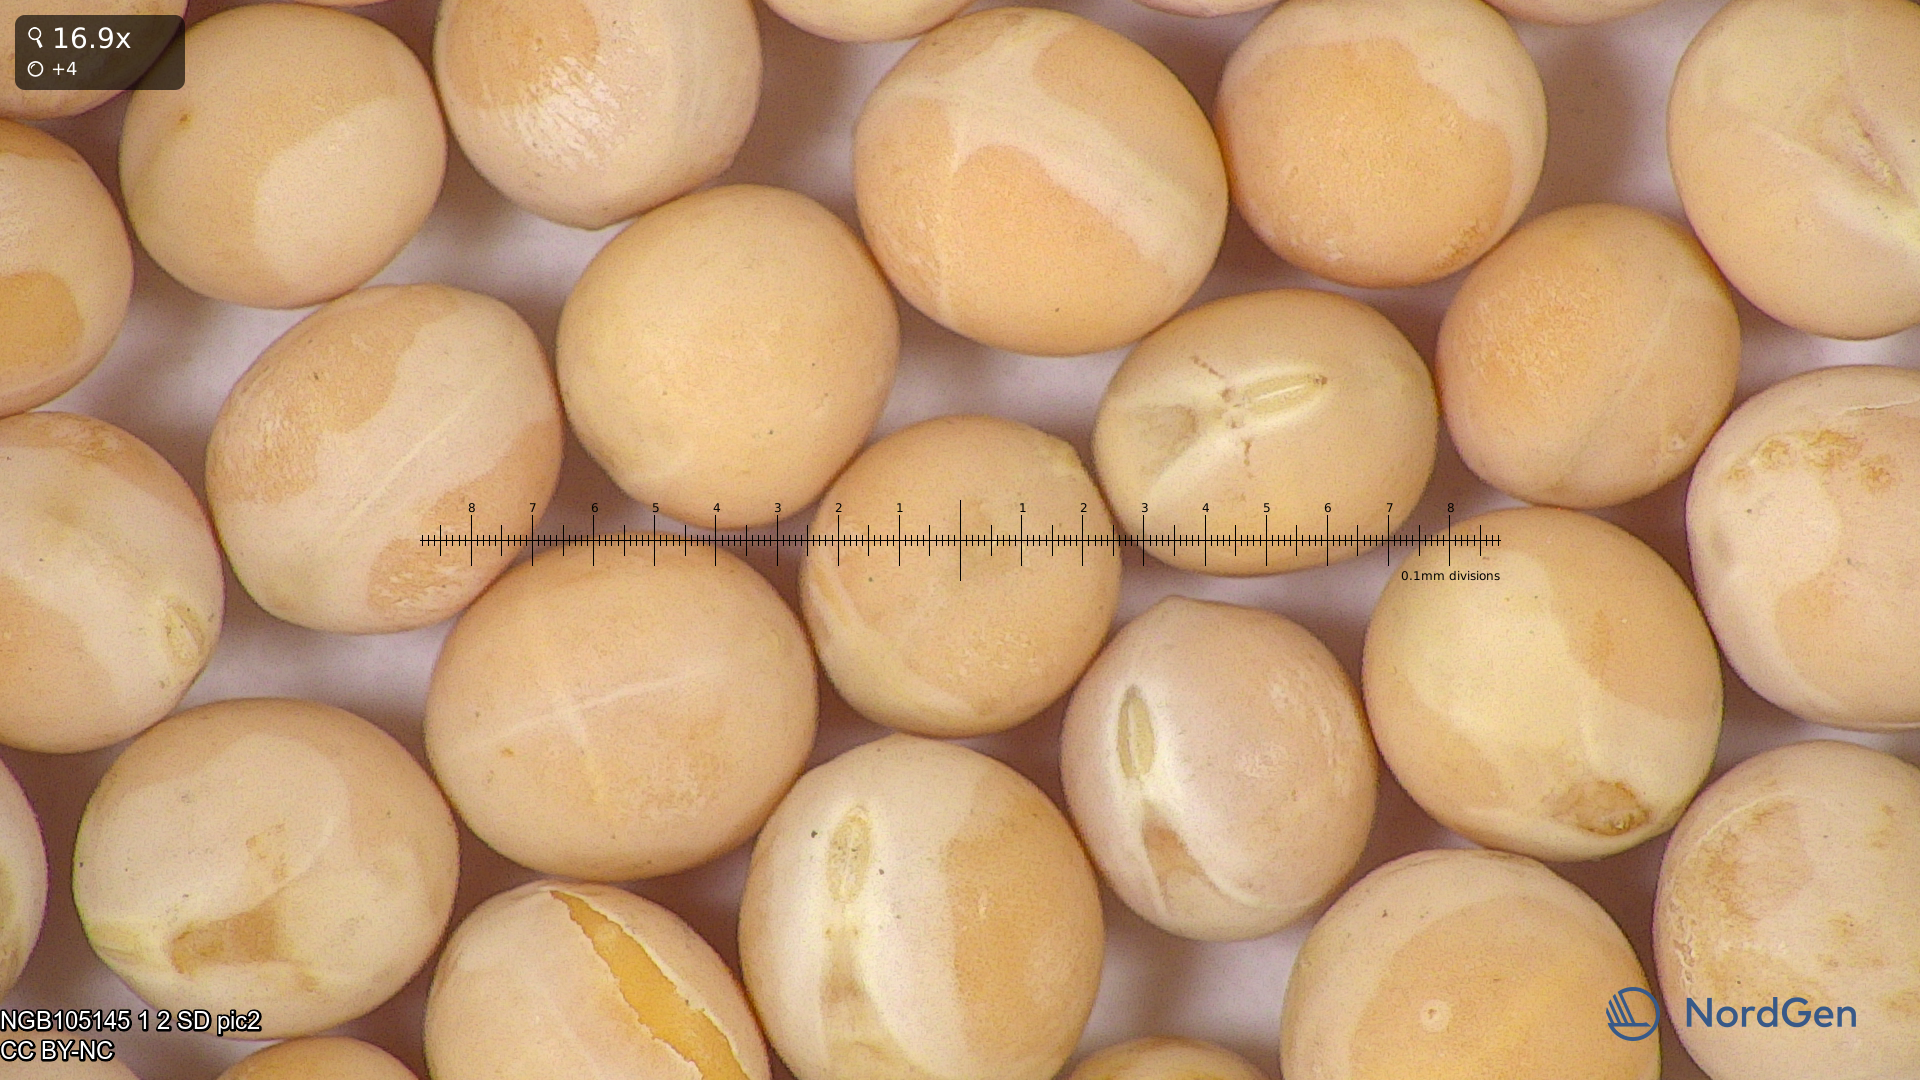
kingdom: Plantae
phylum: Tracheophyta
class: Magnoliopsida
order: Fabales
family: Fabaceae
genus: Lathyrus
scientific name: Lathyrus oleraceus
